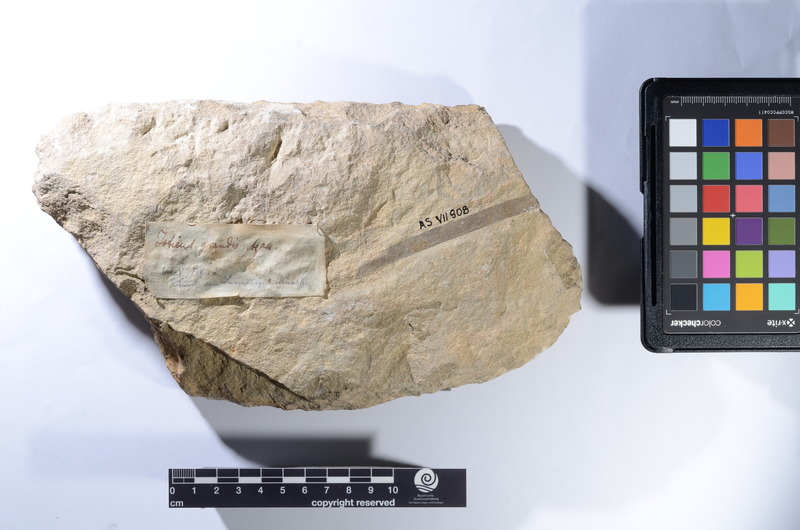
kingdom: Animalia
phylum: Chordata
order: Albuliformes
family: Albulidae
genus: Istieus
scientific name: Istieus grandis
